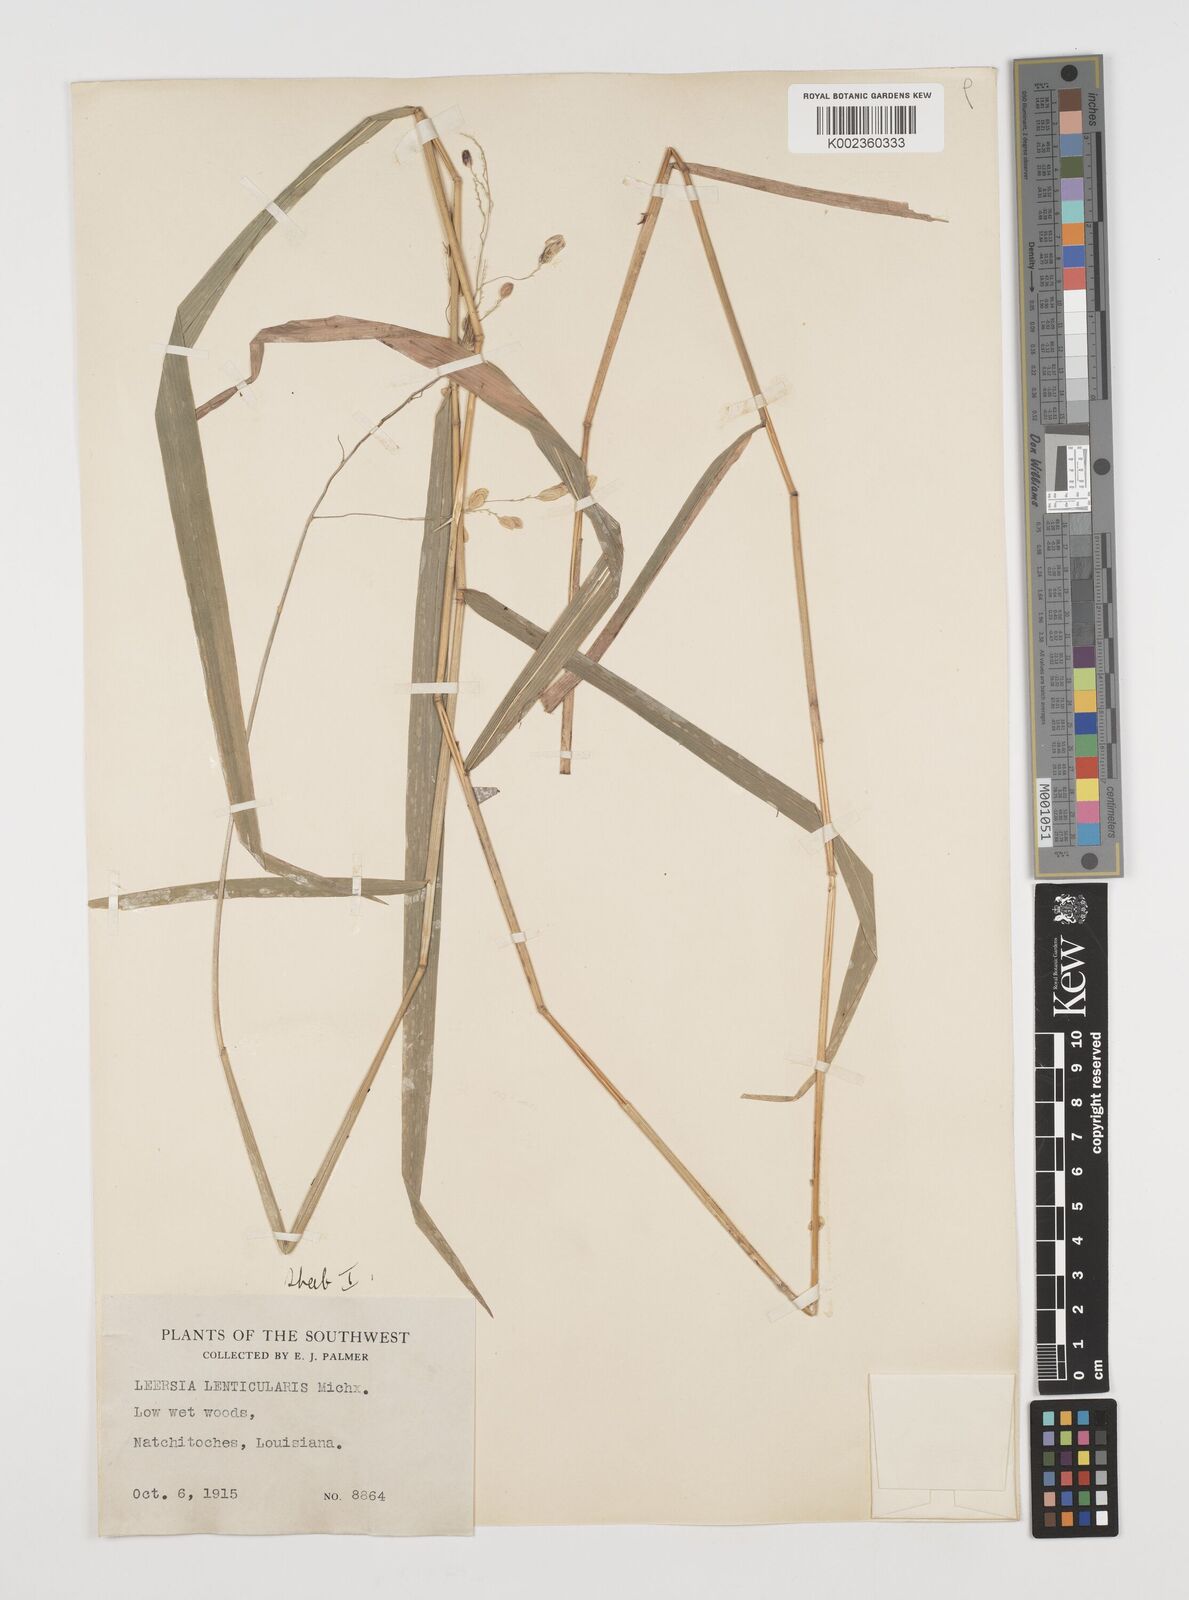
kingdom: Plantae
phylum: Tracheophyta
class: Liliopsida
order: Poales
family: Poaceae
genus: Leersia
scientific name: Leersia lenticularis
